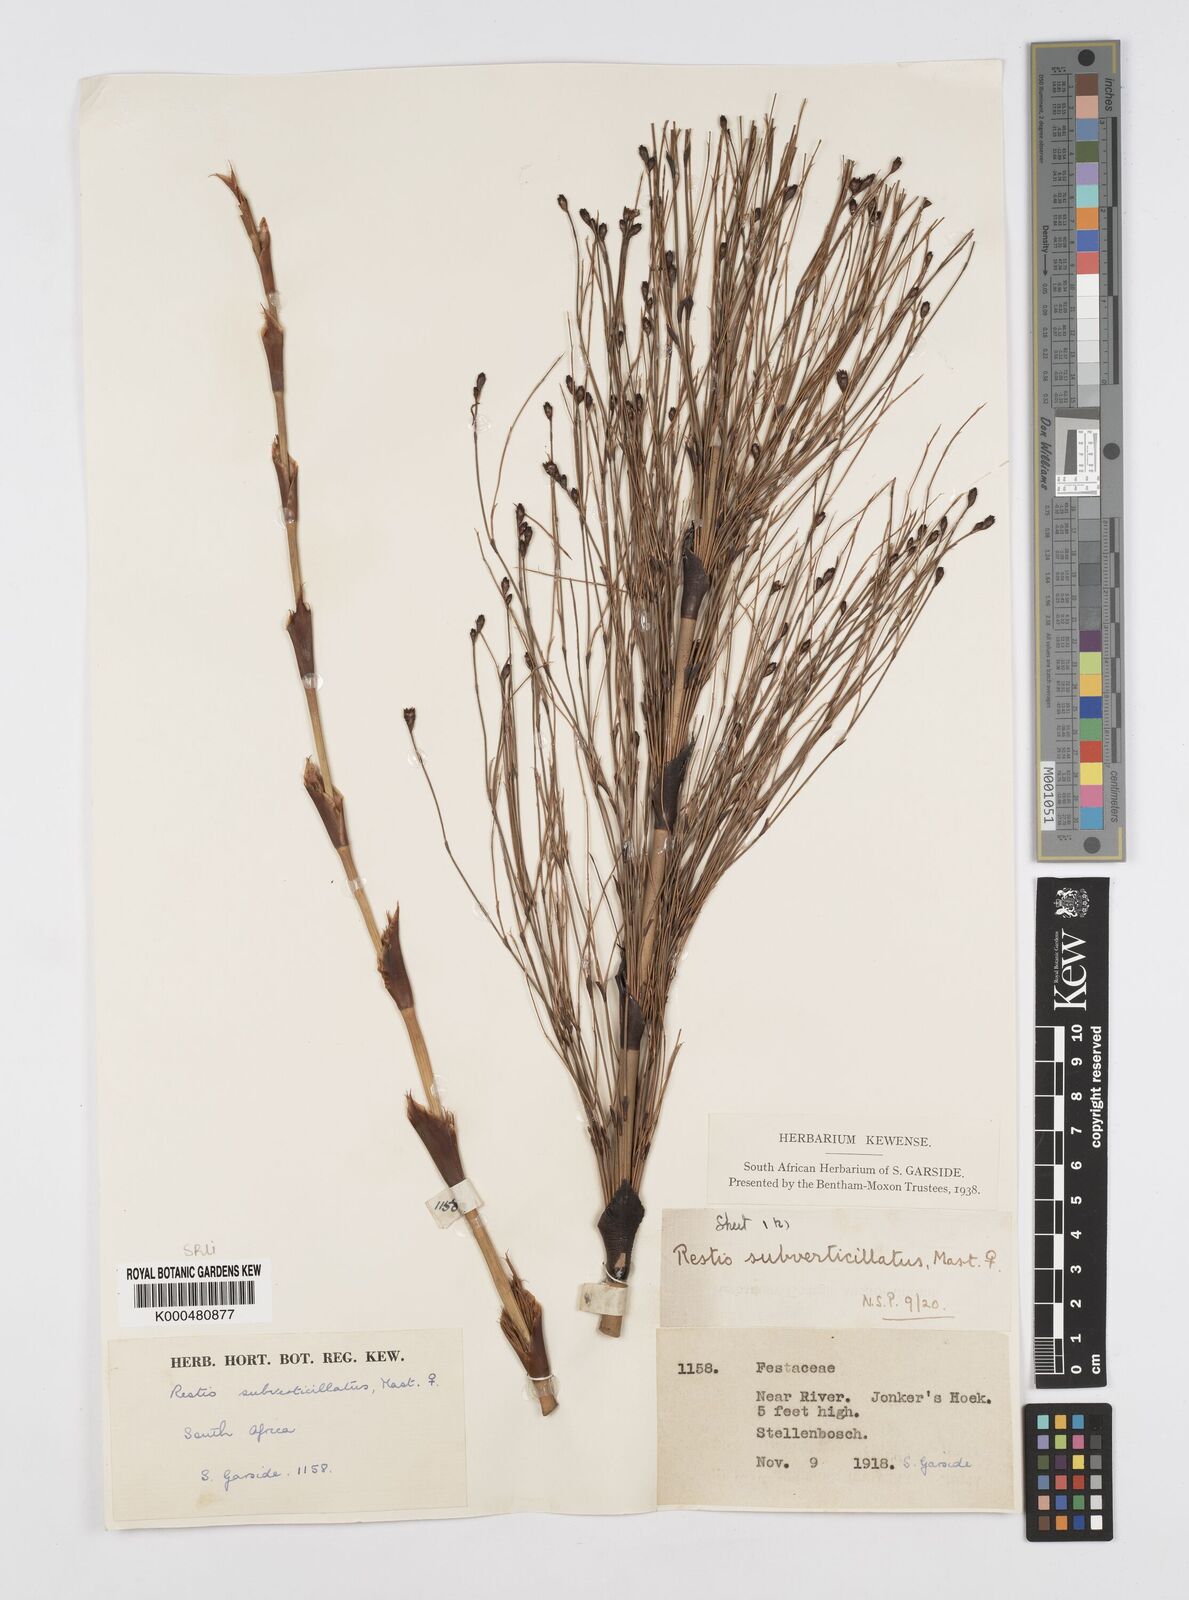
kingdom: Plantae
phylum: Tracheophyta
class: Liliopsida
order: Poales
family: Restionaceae
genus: Restio
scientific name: Restio subverticillatus
